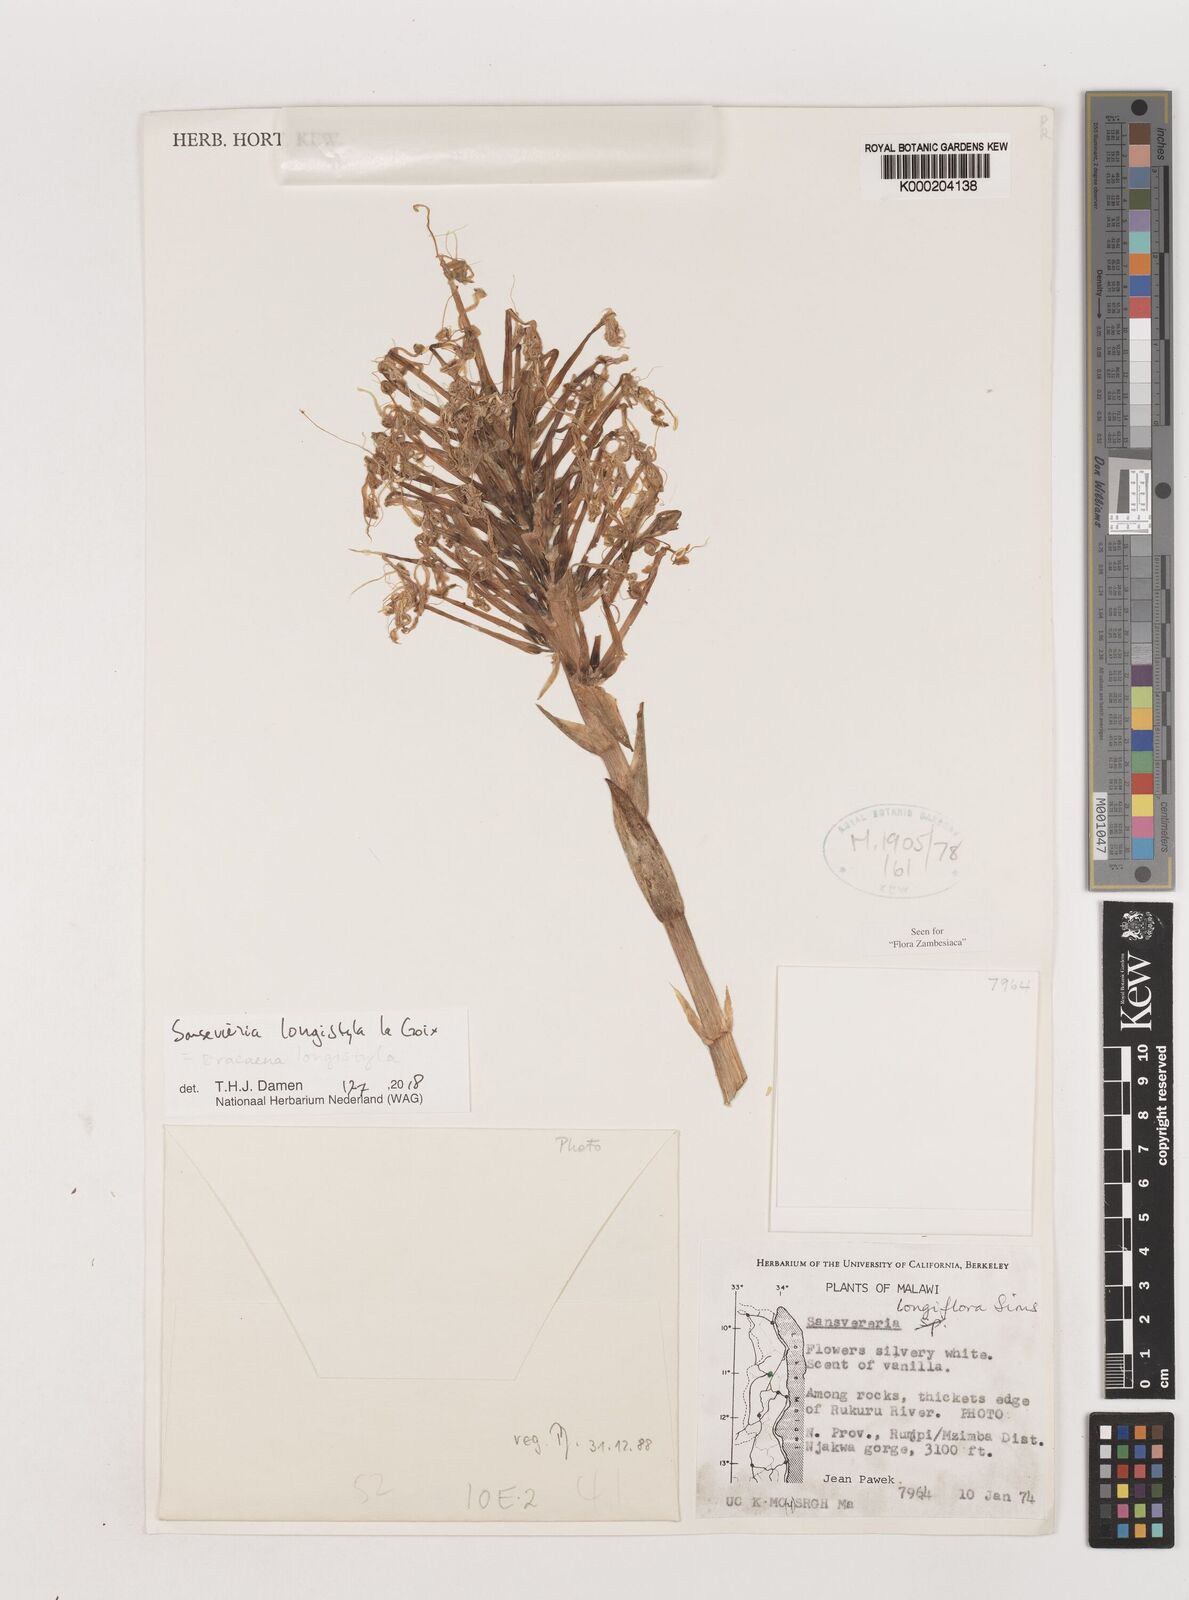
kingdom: Plantae
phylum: Tracheophyta
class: Liliopsida
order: Asparagales
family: Asparagaceae
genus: Dracaena
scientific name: Dracaena longistyla
